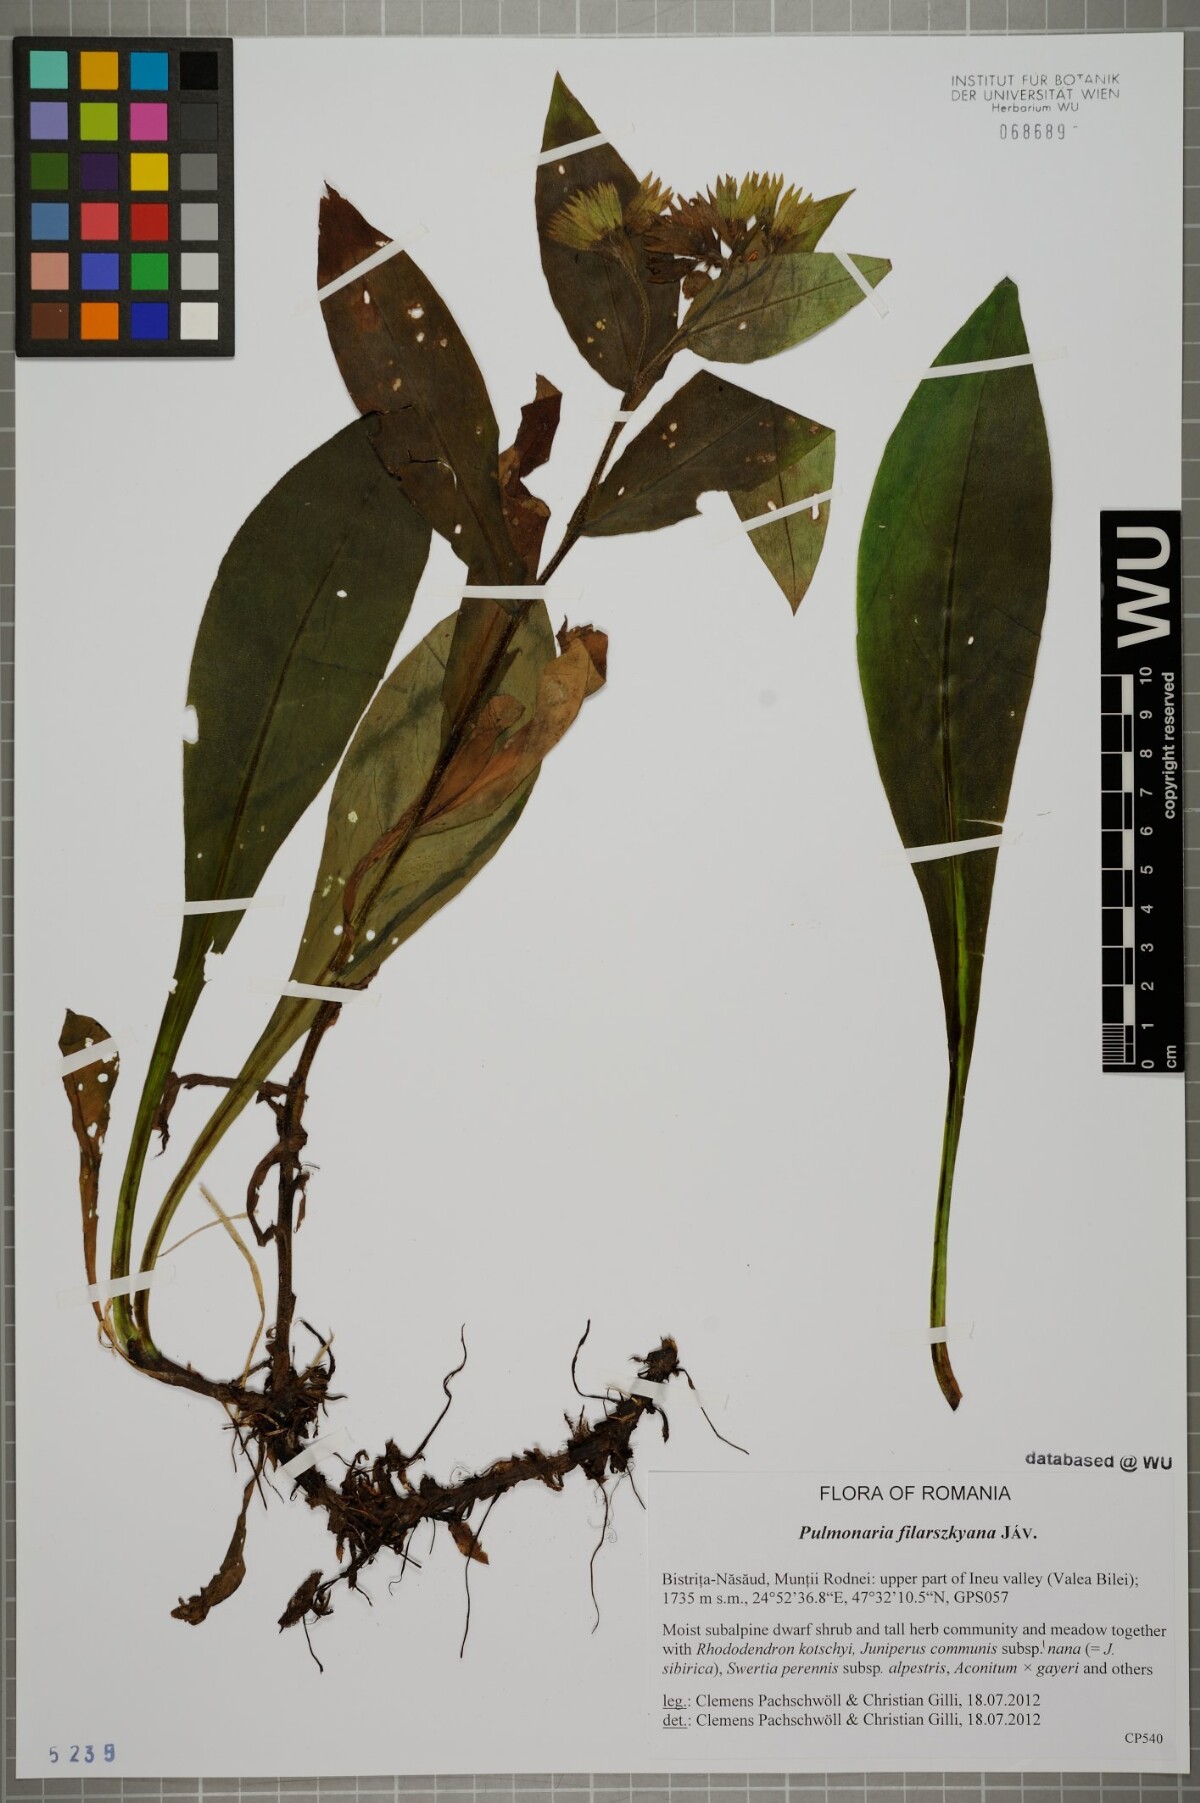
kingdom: Plantae
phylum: Tracheophyta
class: Magnoliopsida
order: Boraginales
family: Boraginaceae
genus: Pulmonaria
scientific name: Pulmonaria filarszkyana
